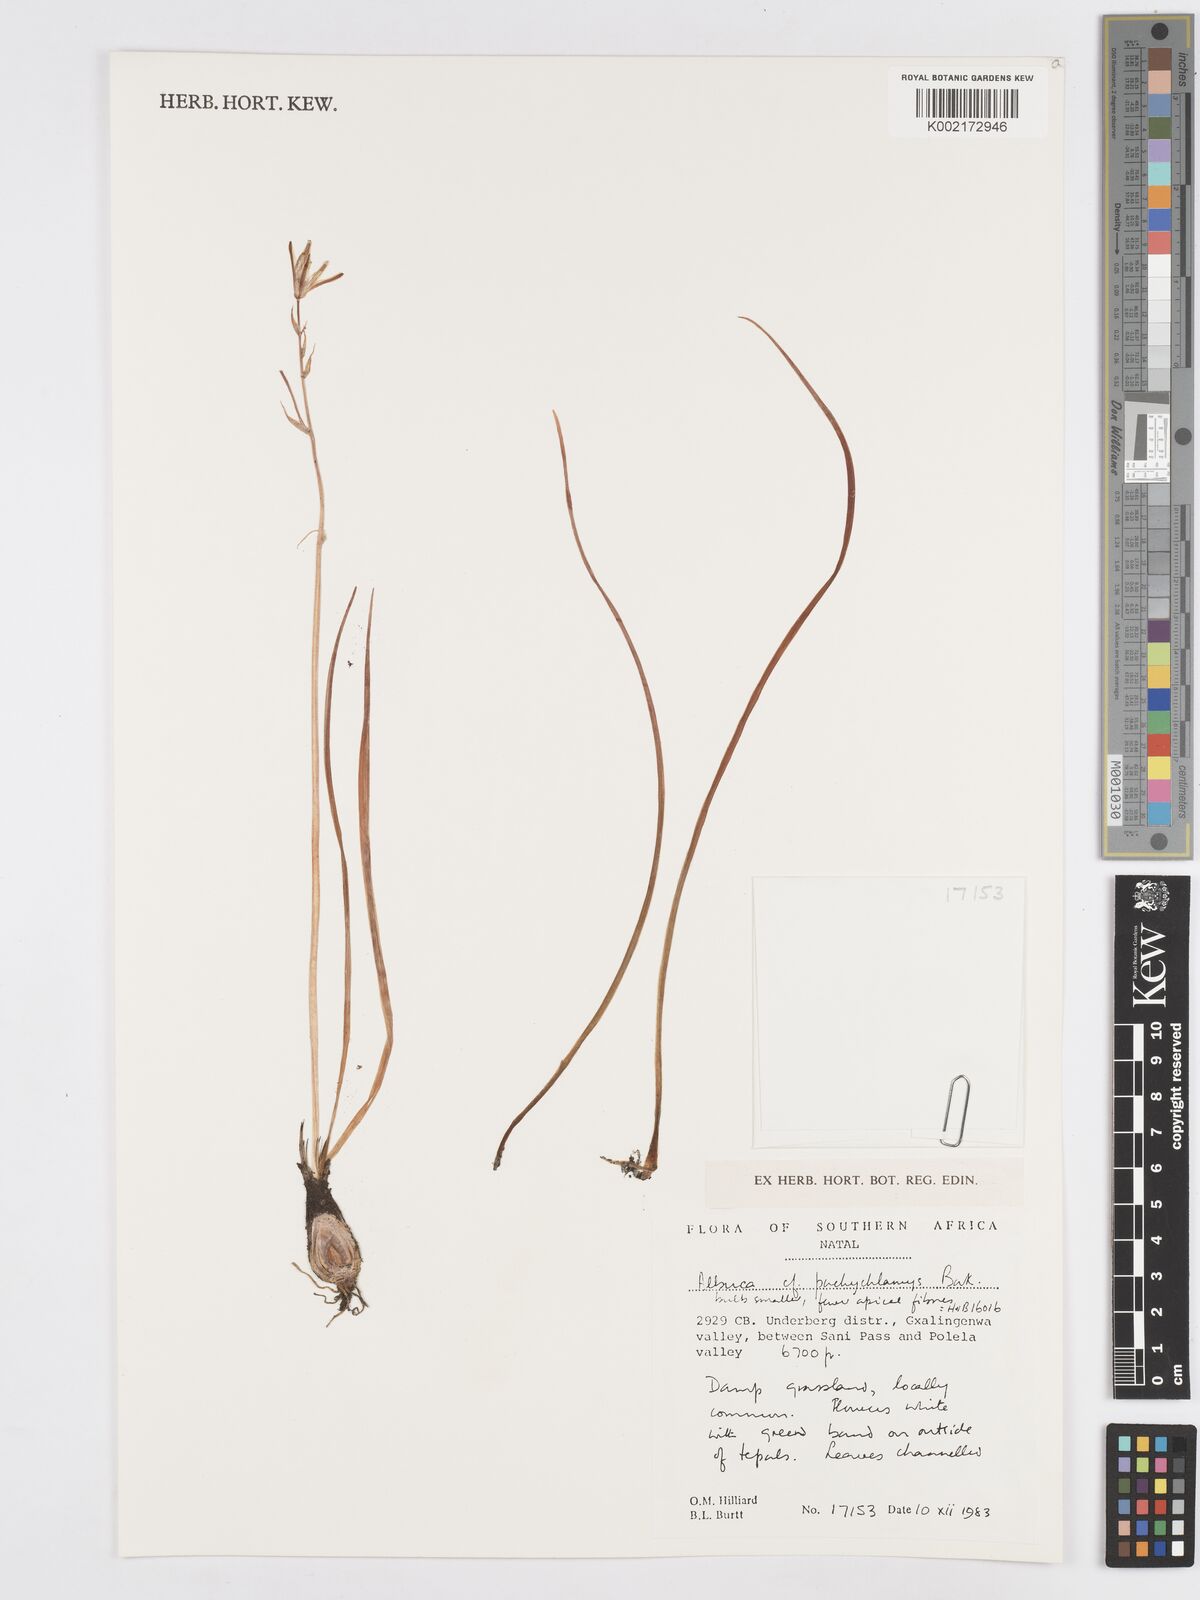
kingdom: Plantae
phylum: Tracheophyta
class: Liliopsida
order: Asparagales
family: Asparagaceae
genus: Albuca
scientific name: Albuca setosa
